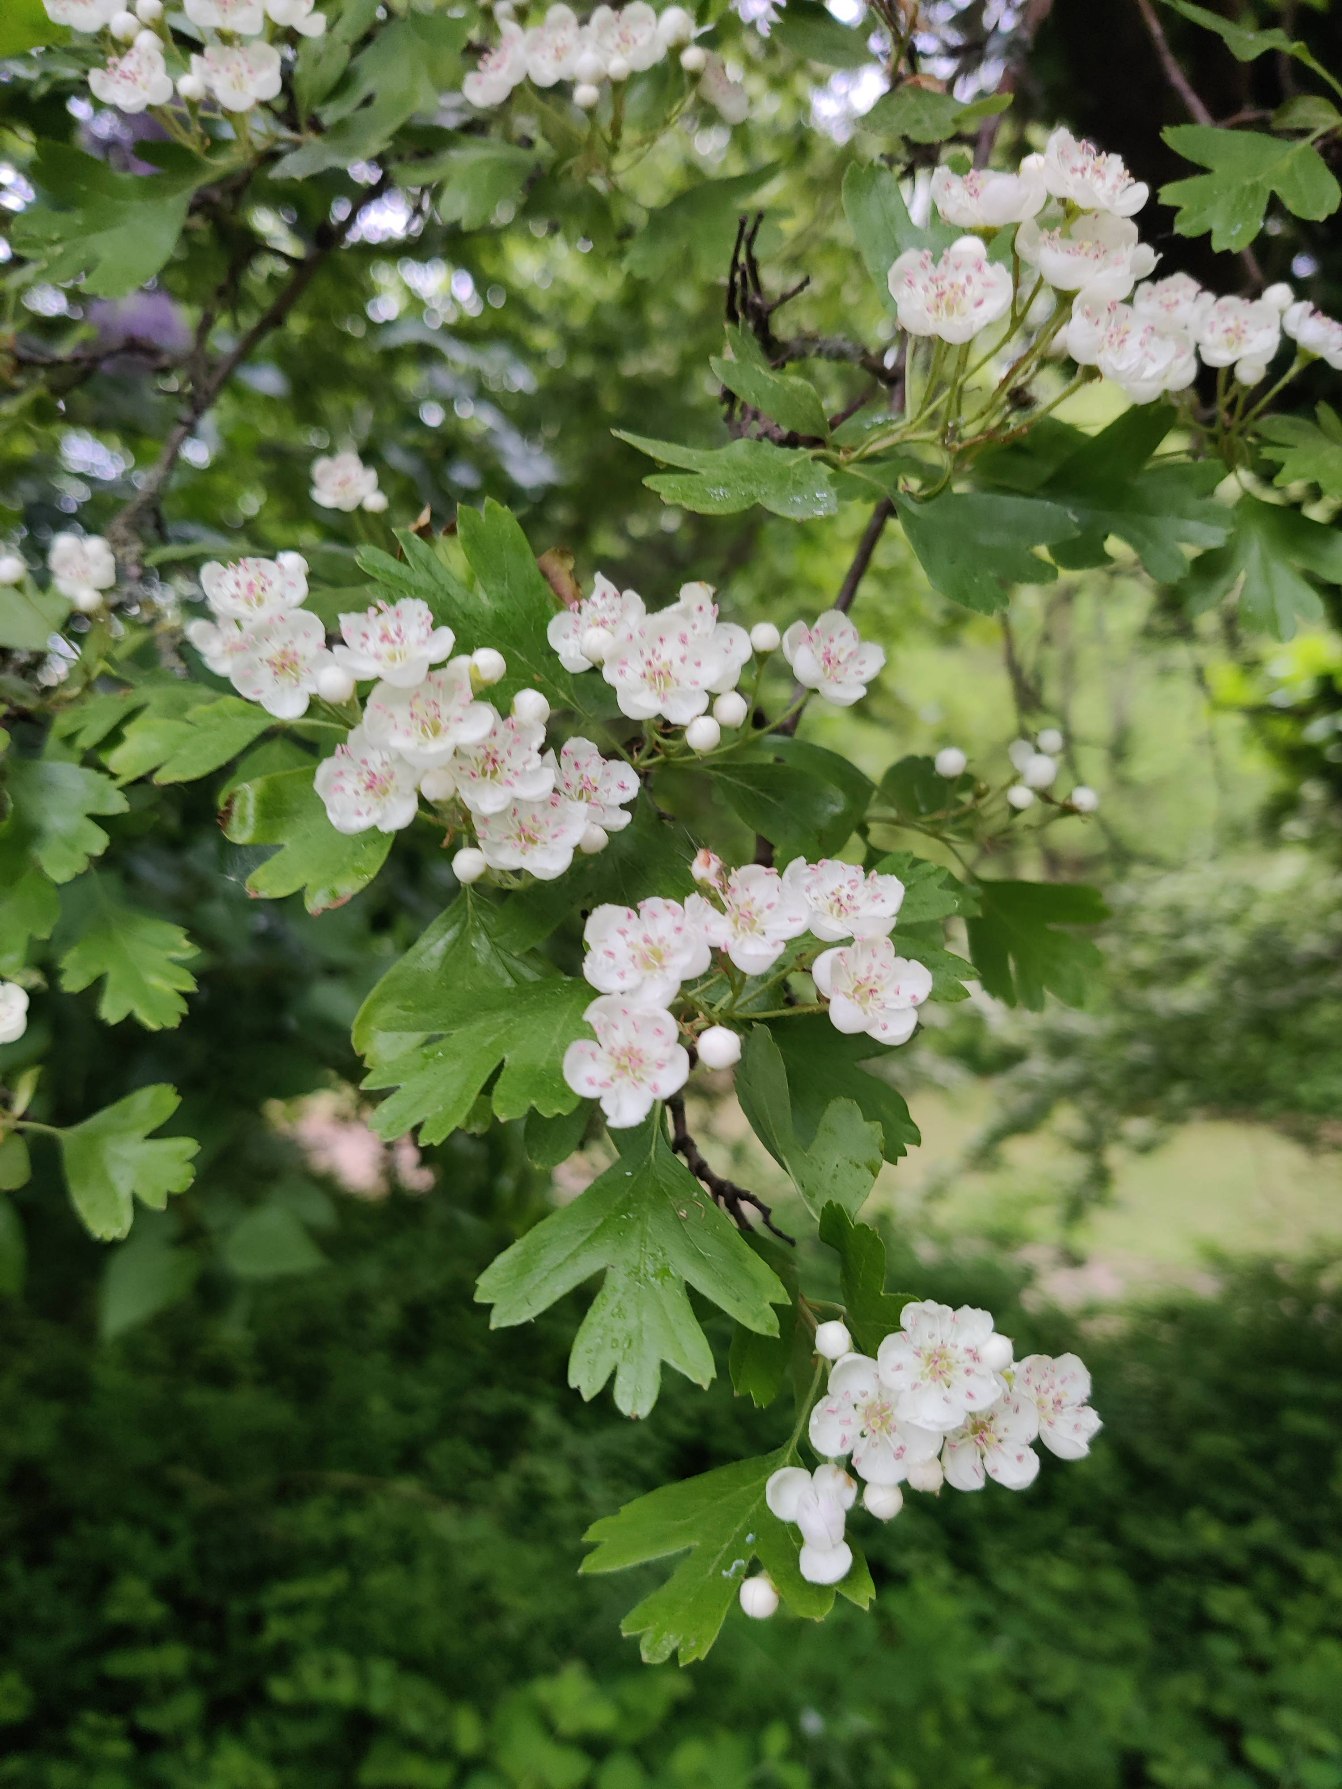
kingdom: Plantae
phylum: Tracheophyta
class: Magnoliopsida
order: Rosales
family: Rosaceae
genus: Crataegus
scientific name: Crataegus monogyna
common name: Engriflet hvidtjørn
